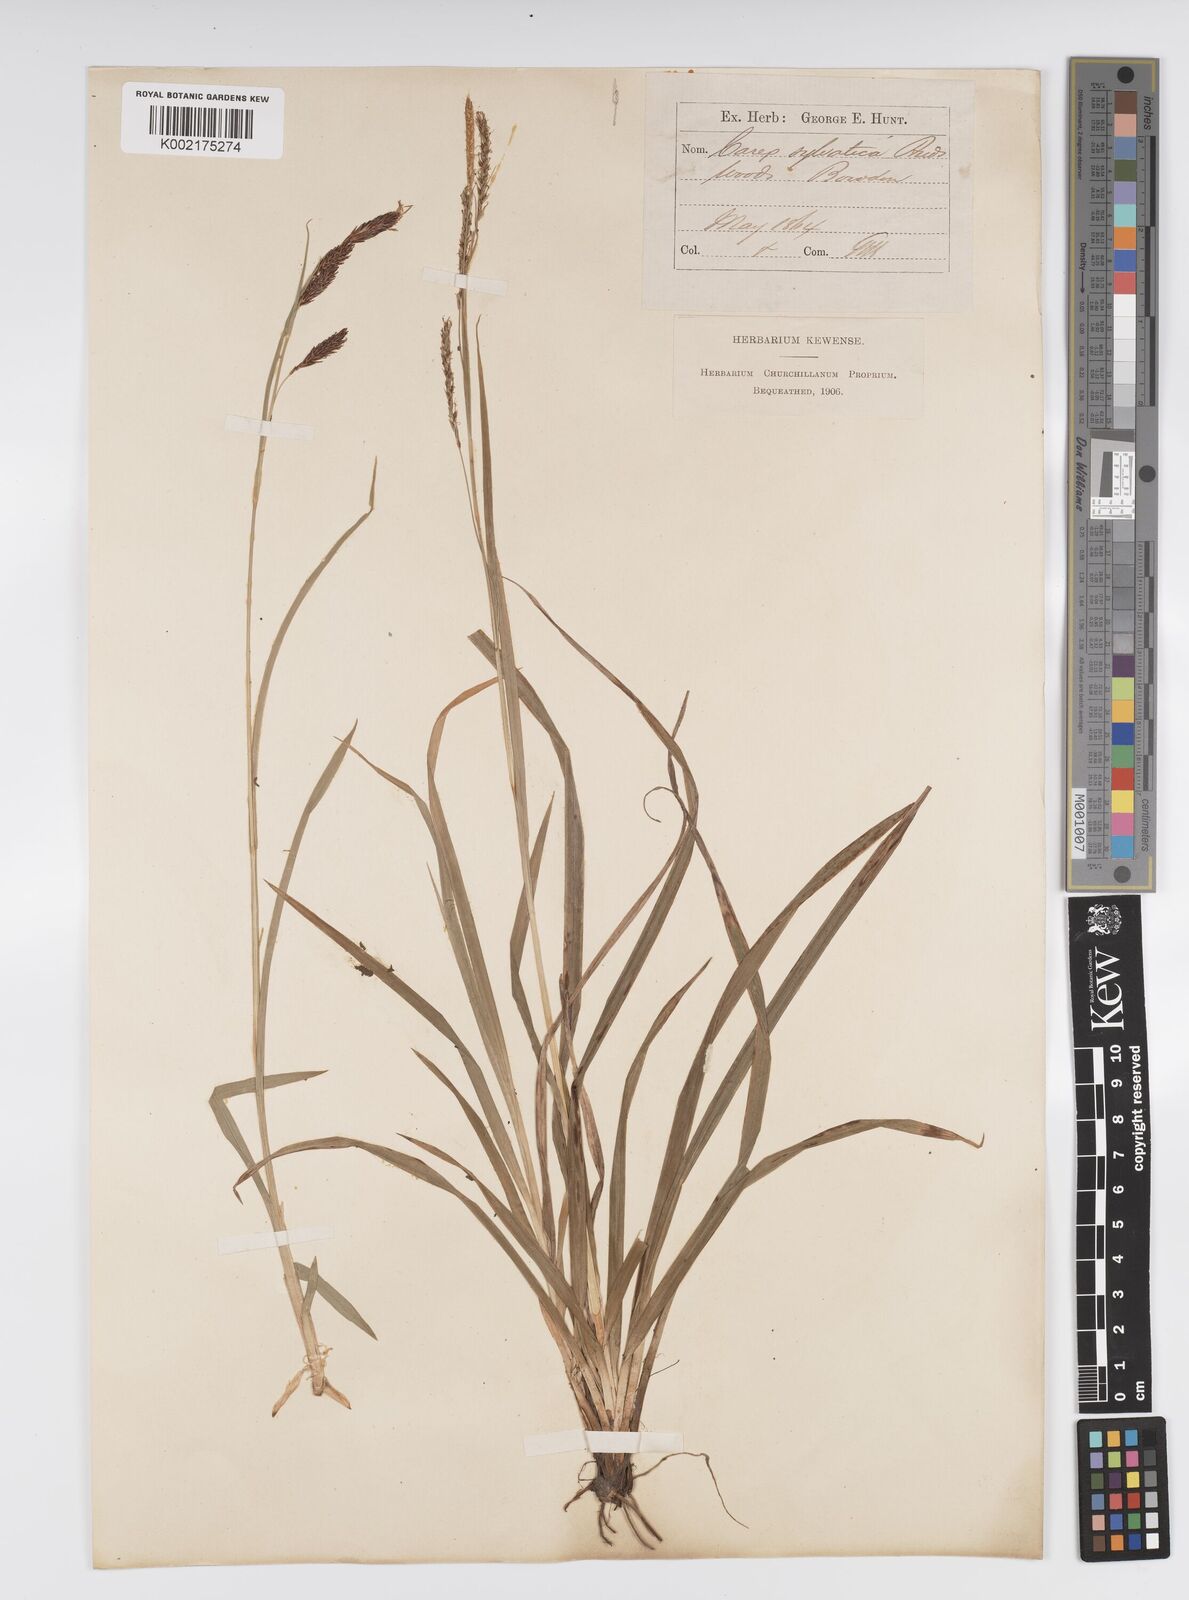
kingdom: Plantae
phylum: Tracheophyta
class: Liliopsida
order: Poales
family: Cyperaceae
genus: Carex
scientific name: Carex sylvatica
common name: Wood-sedge
